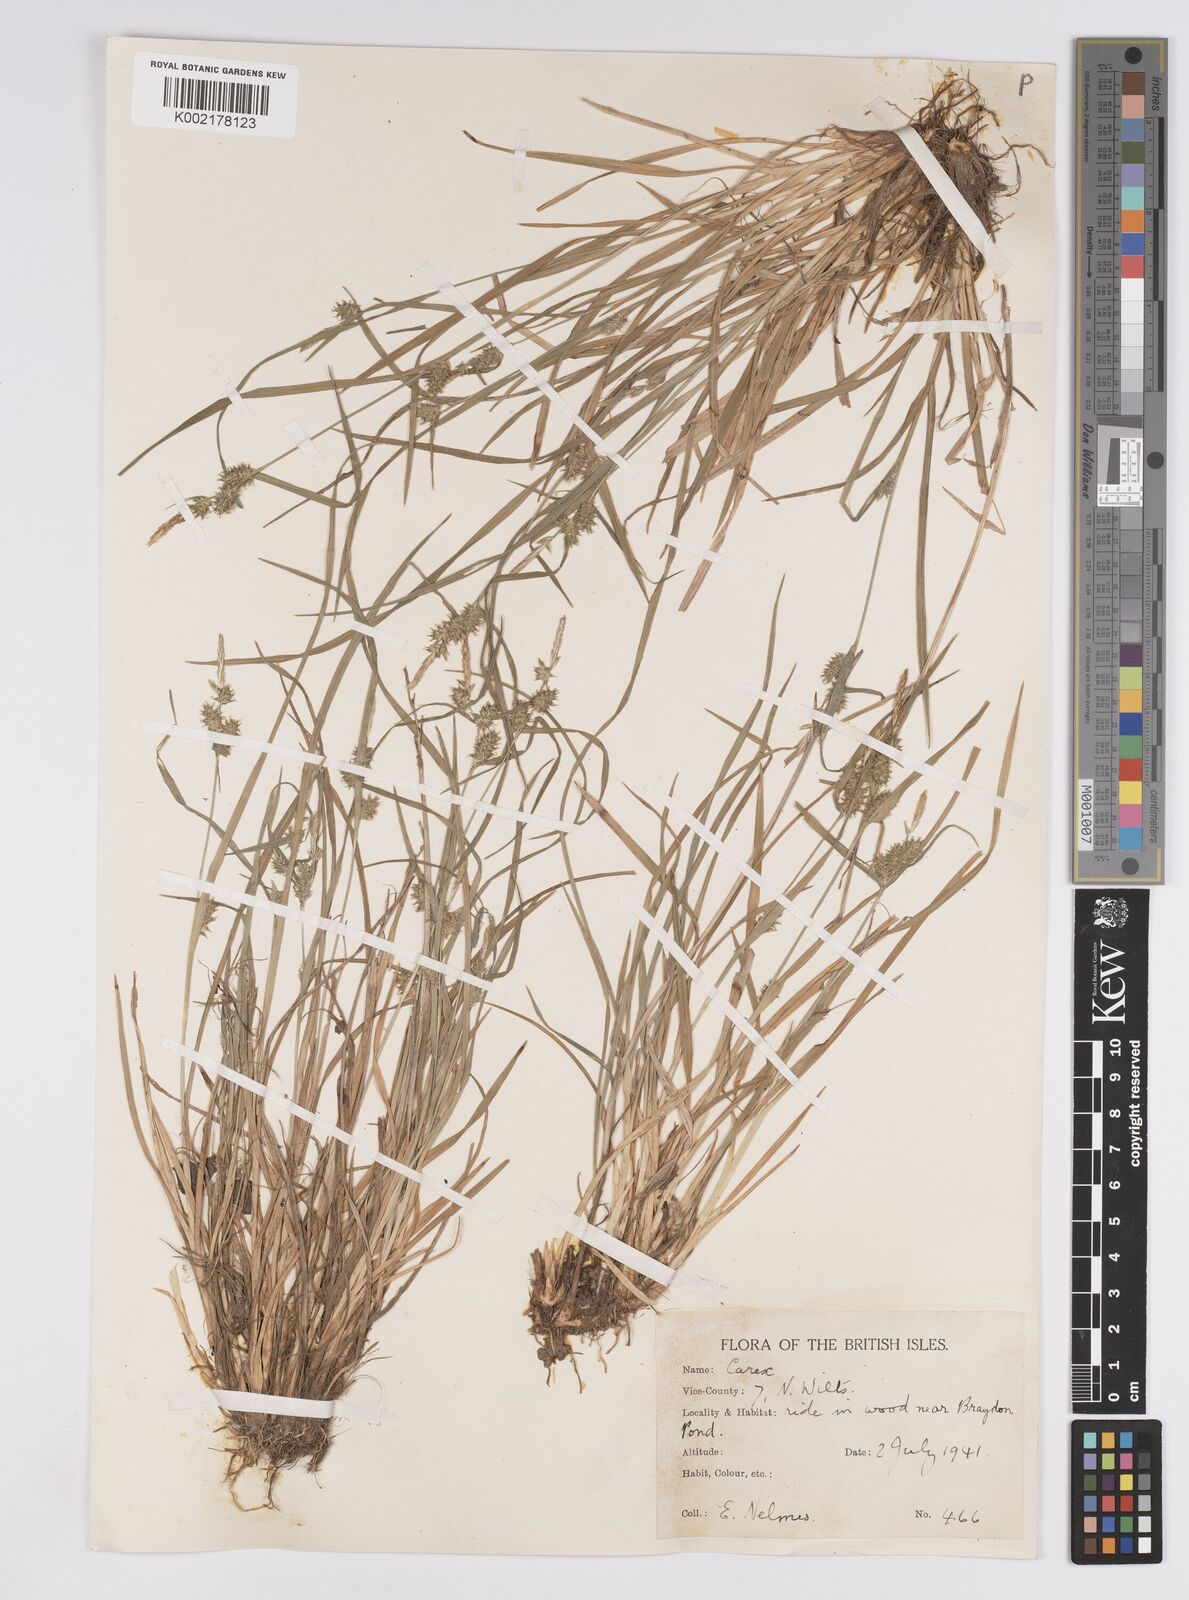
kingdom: Plantae
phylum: Tracheophyta
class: Liliopsida
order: Poales
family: Cyperaceae
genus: Carex
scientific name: Carex demissa
